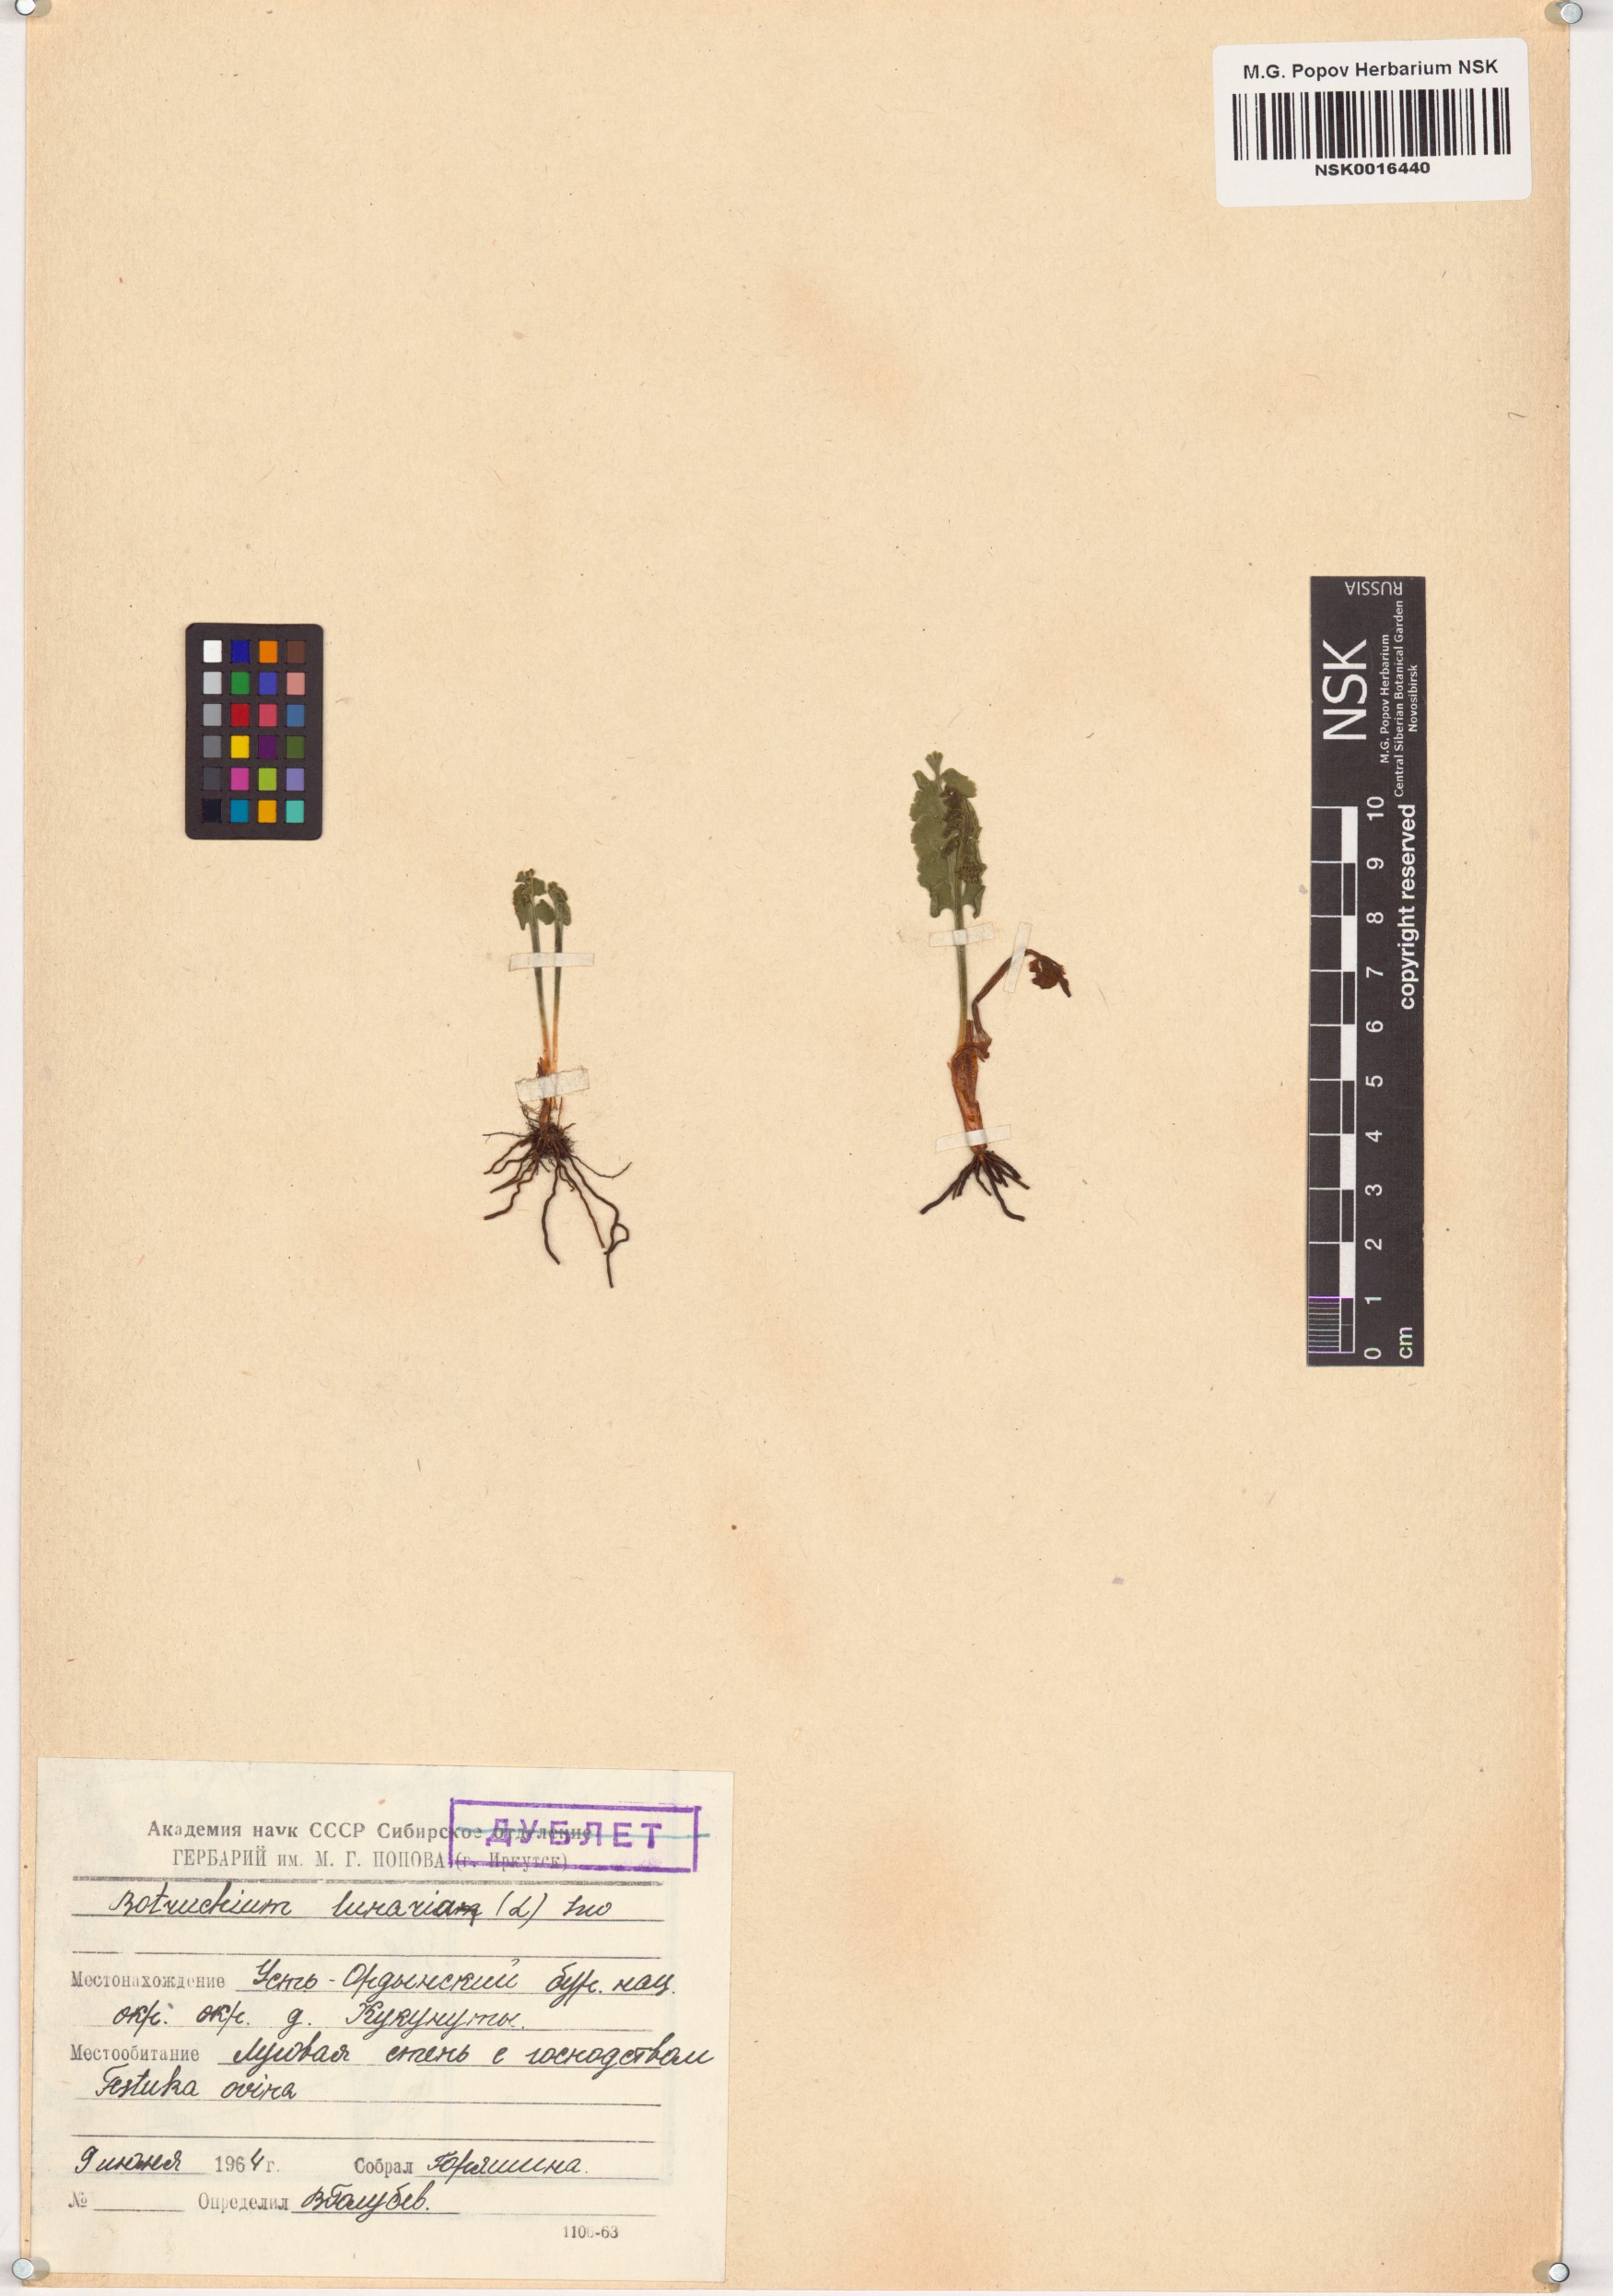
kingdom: Plantae
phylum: Tracheophyta
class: Polypodiopsida
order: Ophioglossales
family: Ophioglossaceae
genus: Botrychium
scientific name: Botrychium lunaria
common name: Moonwort
